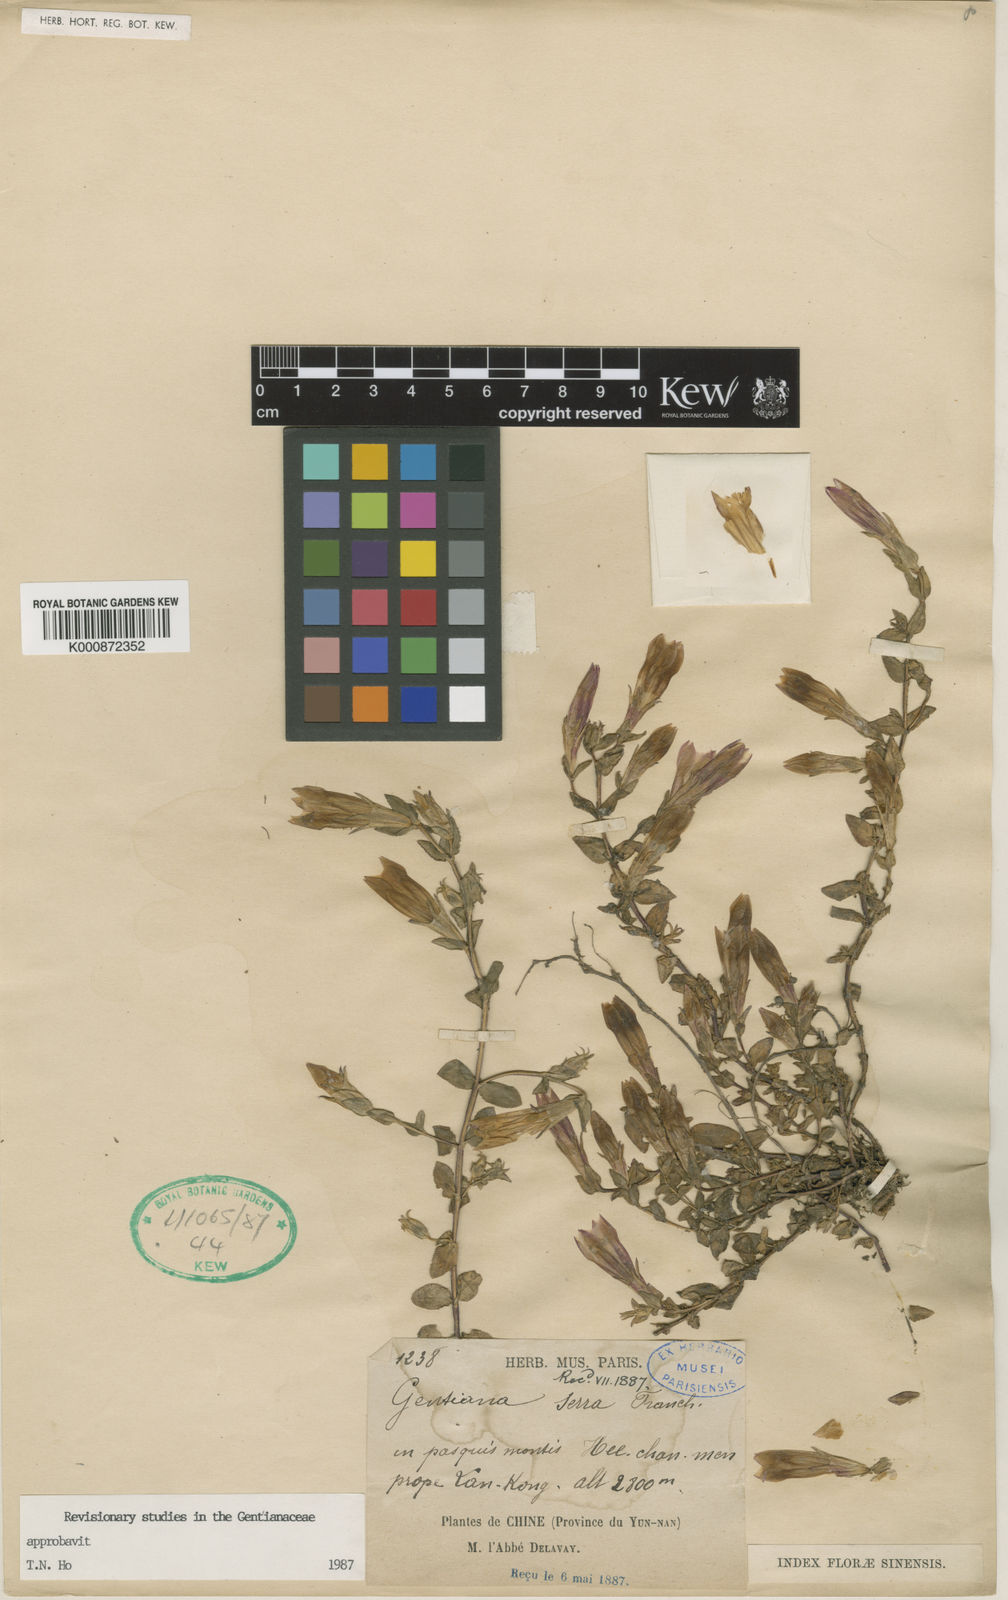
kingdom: Plantae
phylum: Tracheophyta
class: Magnoliopsida
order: Gentianales
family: Gentianaceae
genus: Metagentiana
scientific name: Metagentiana serra
